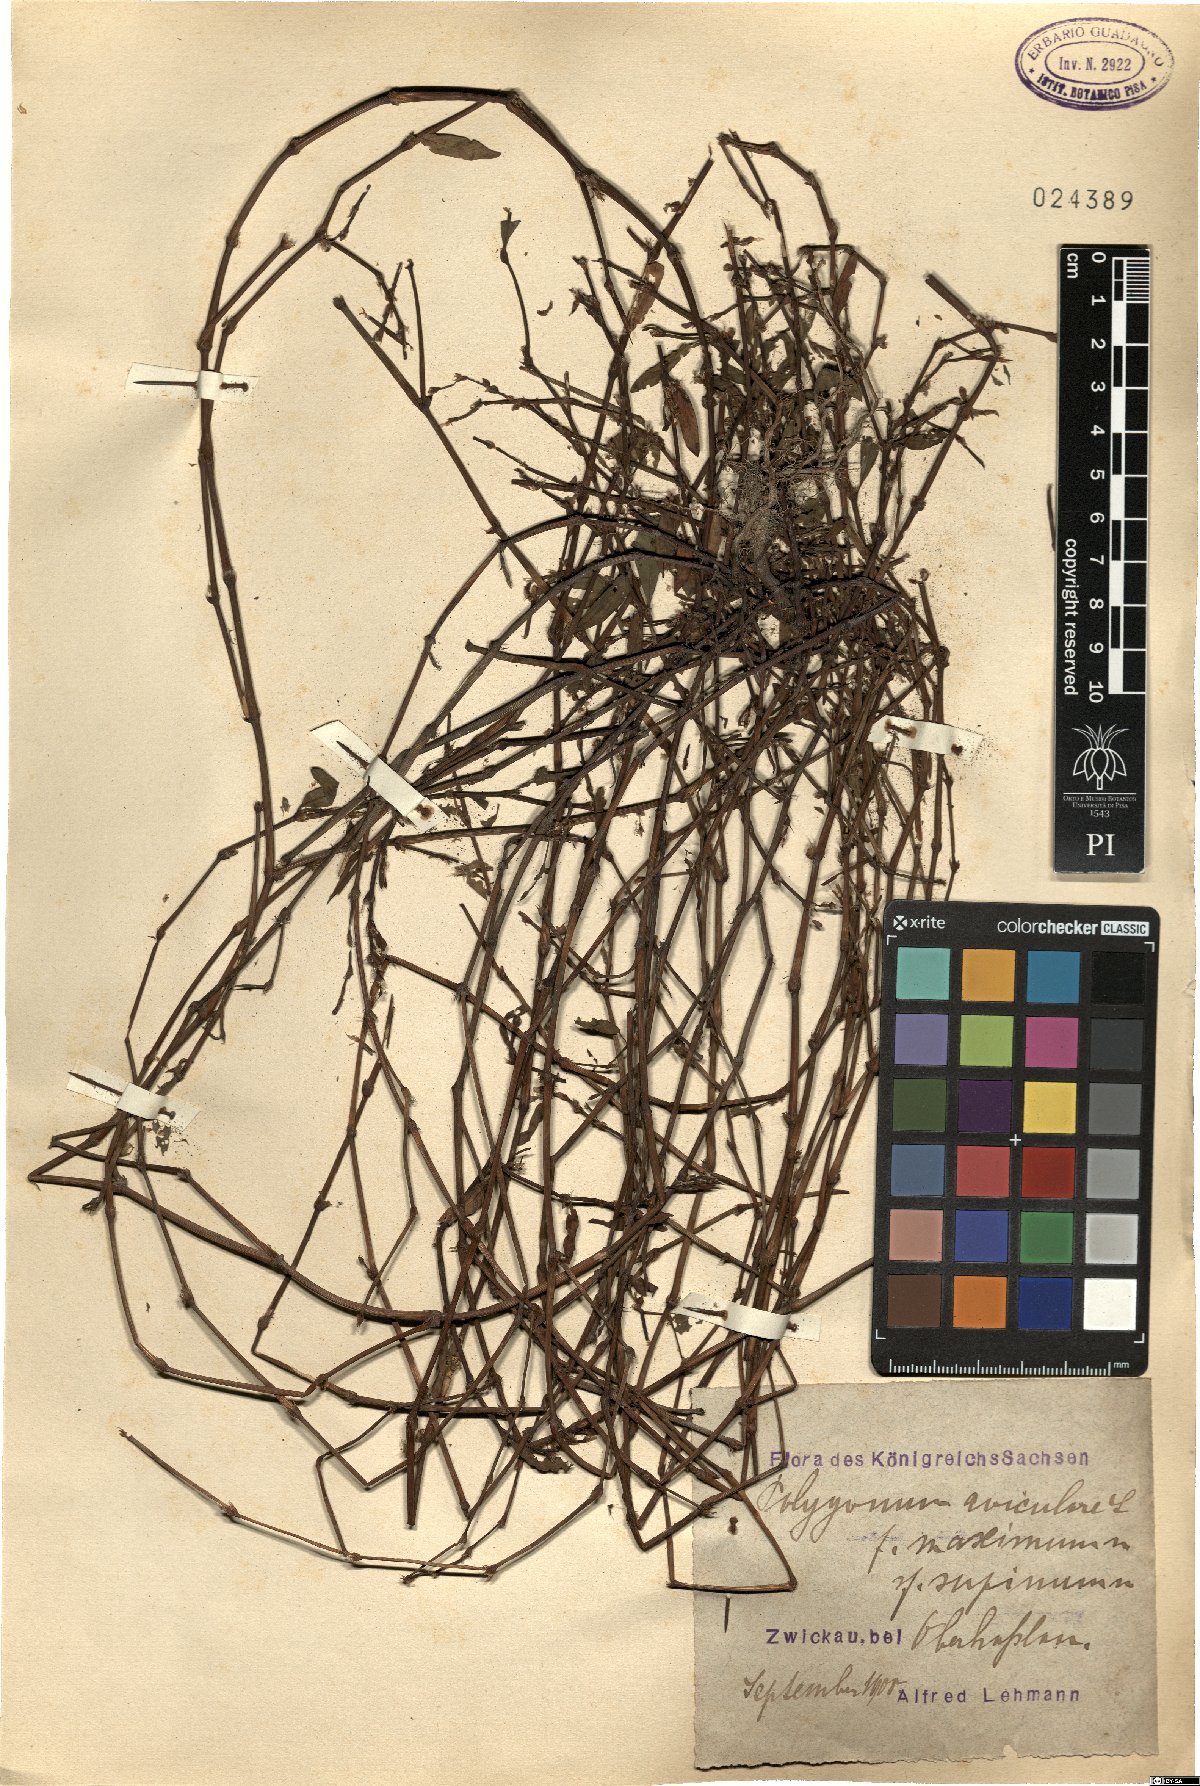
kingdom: Plantae
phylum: Tracheophyta
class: Magnoliopsida
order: Caryophyllales
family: Polygonaceae
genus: Polygonum
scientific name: Polygonum aviculare
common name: Prostrate knotweed
